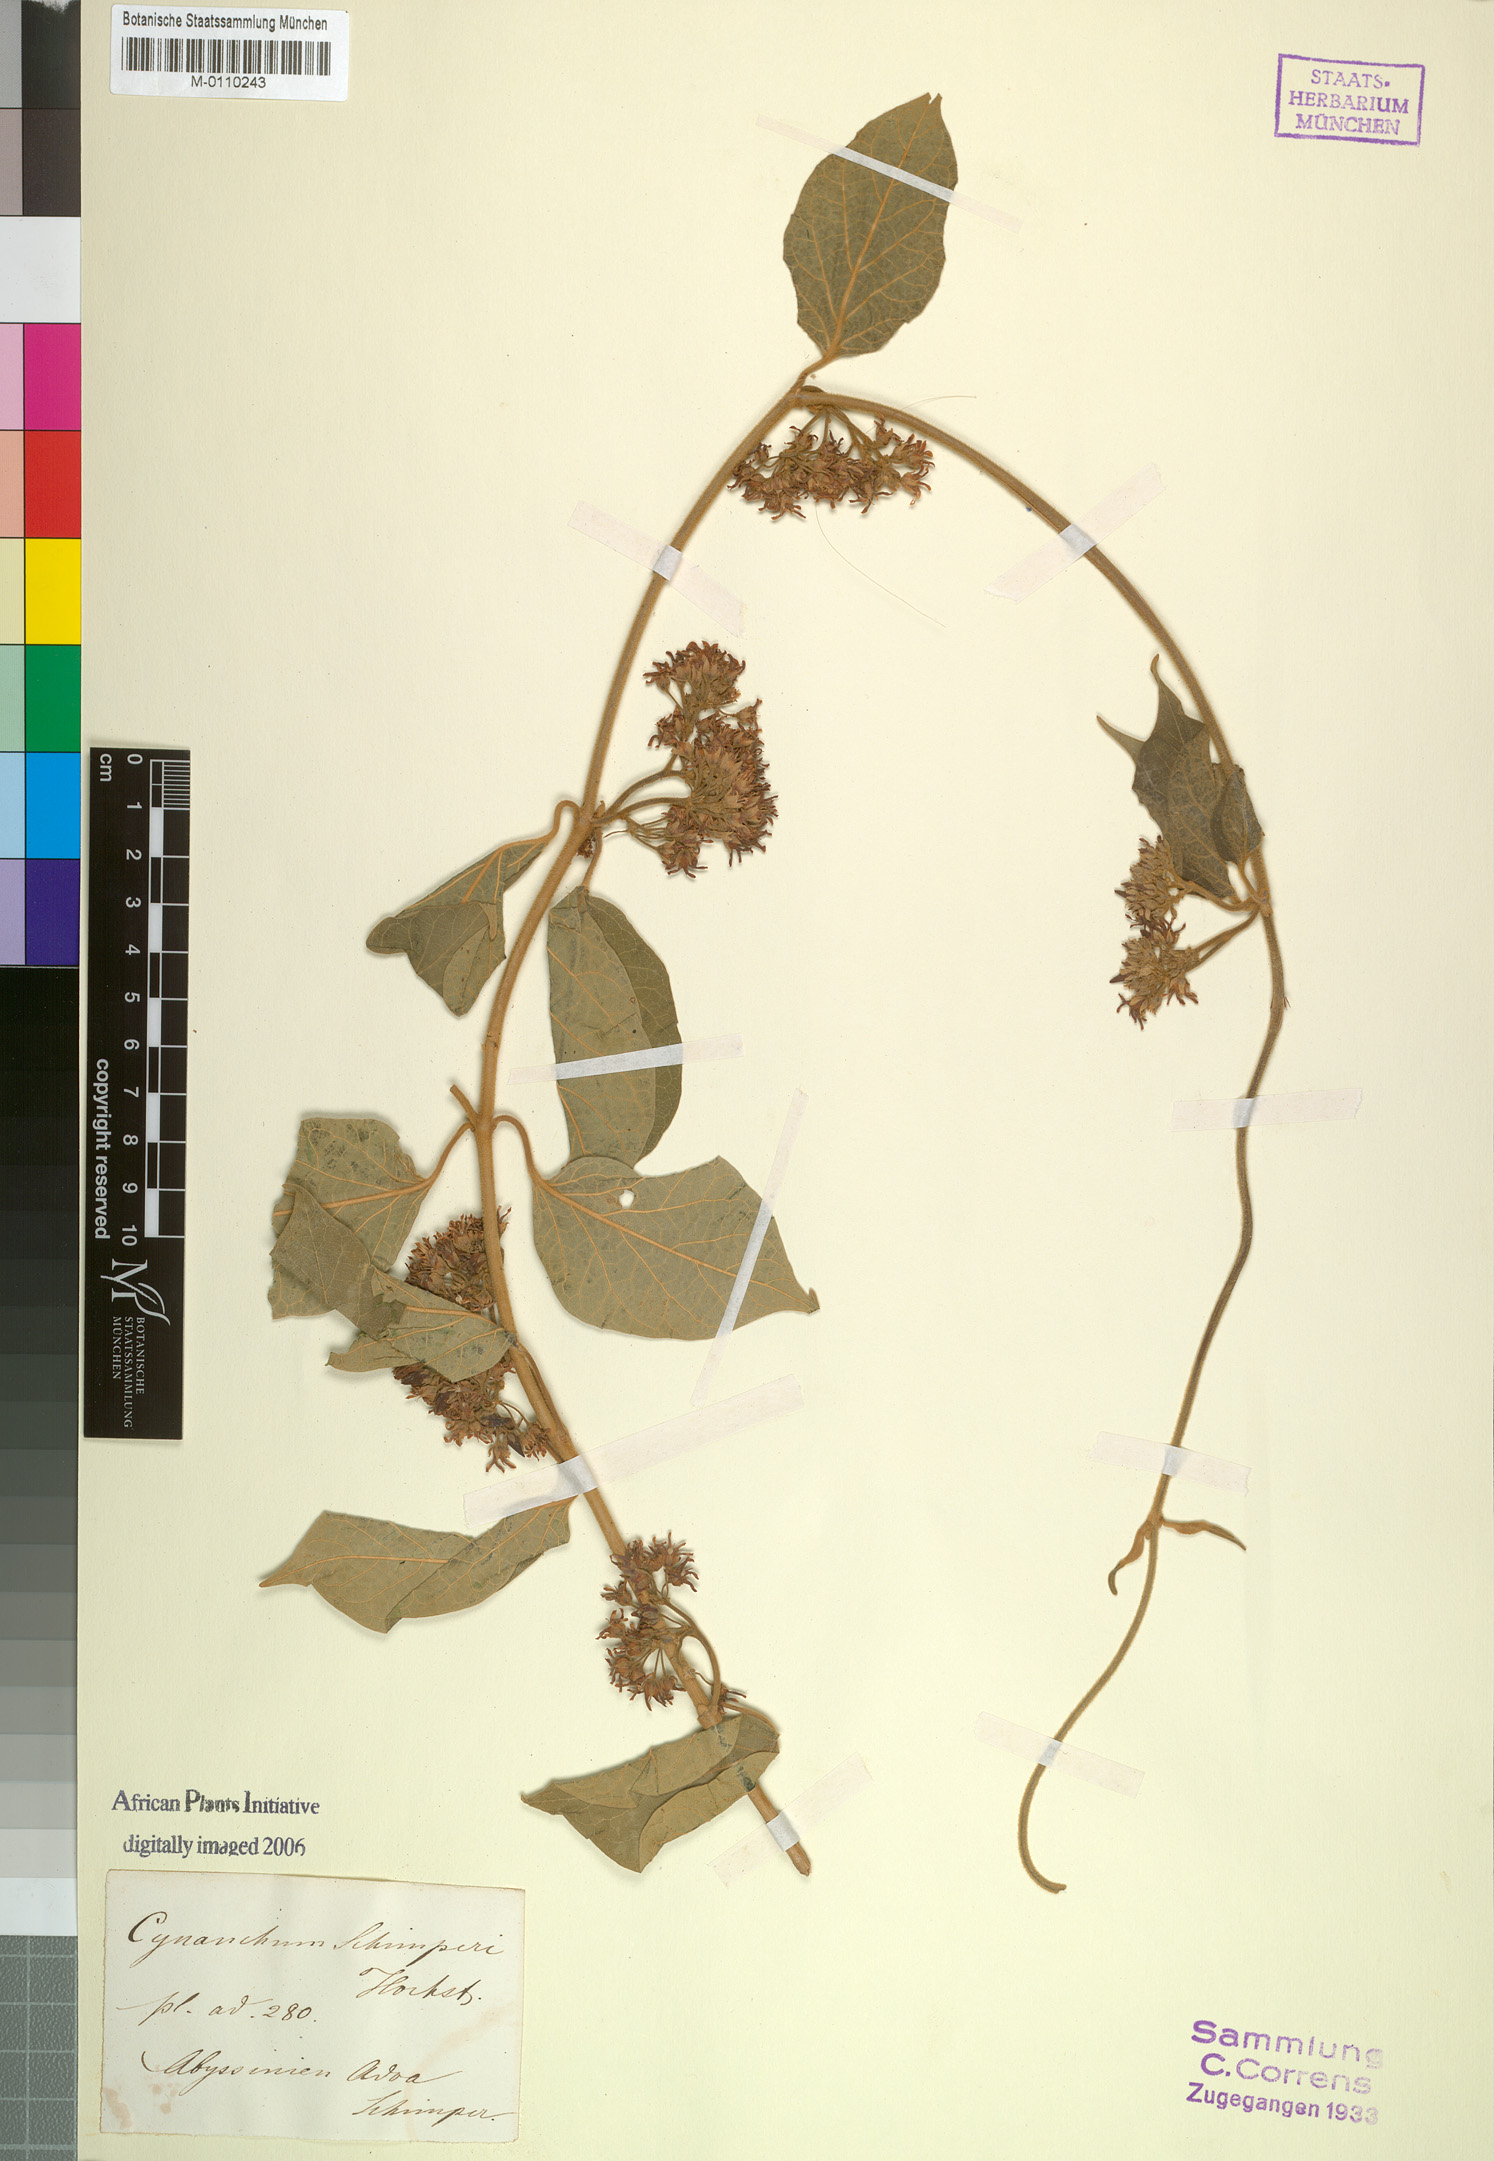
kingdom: Plantae
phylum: Tracheophyta
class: Magnoliopsida
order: Gentianales
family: Apocynaceae
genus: Stephanotis
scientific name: Stephanotis schimperi
